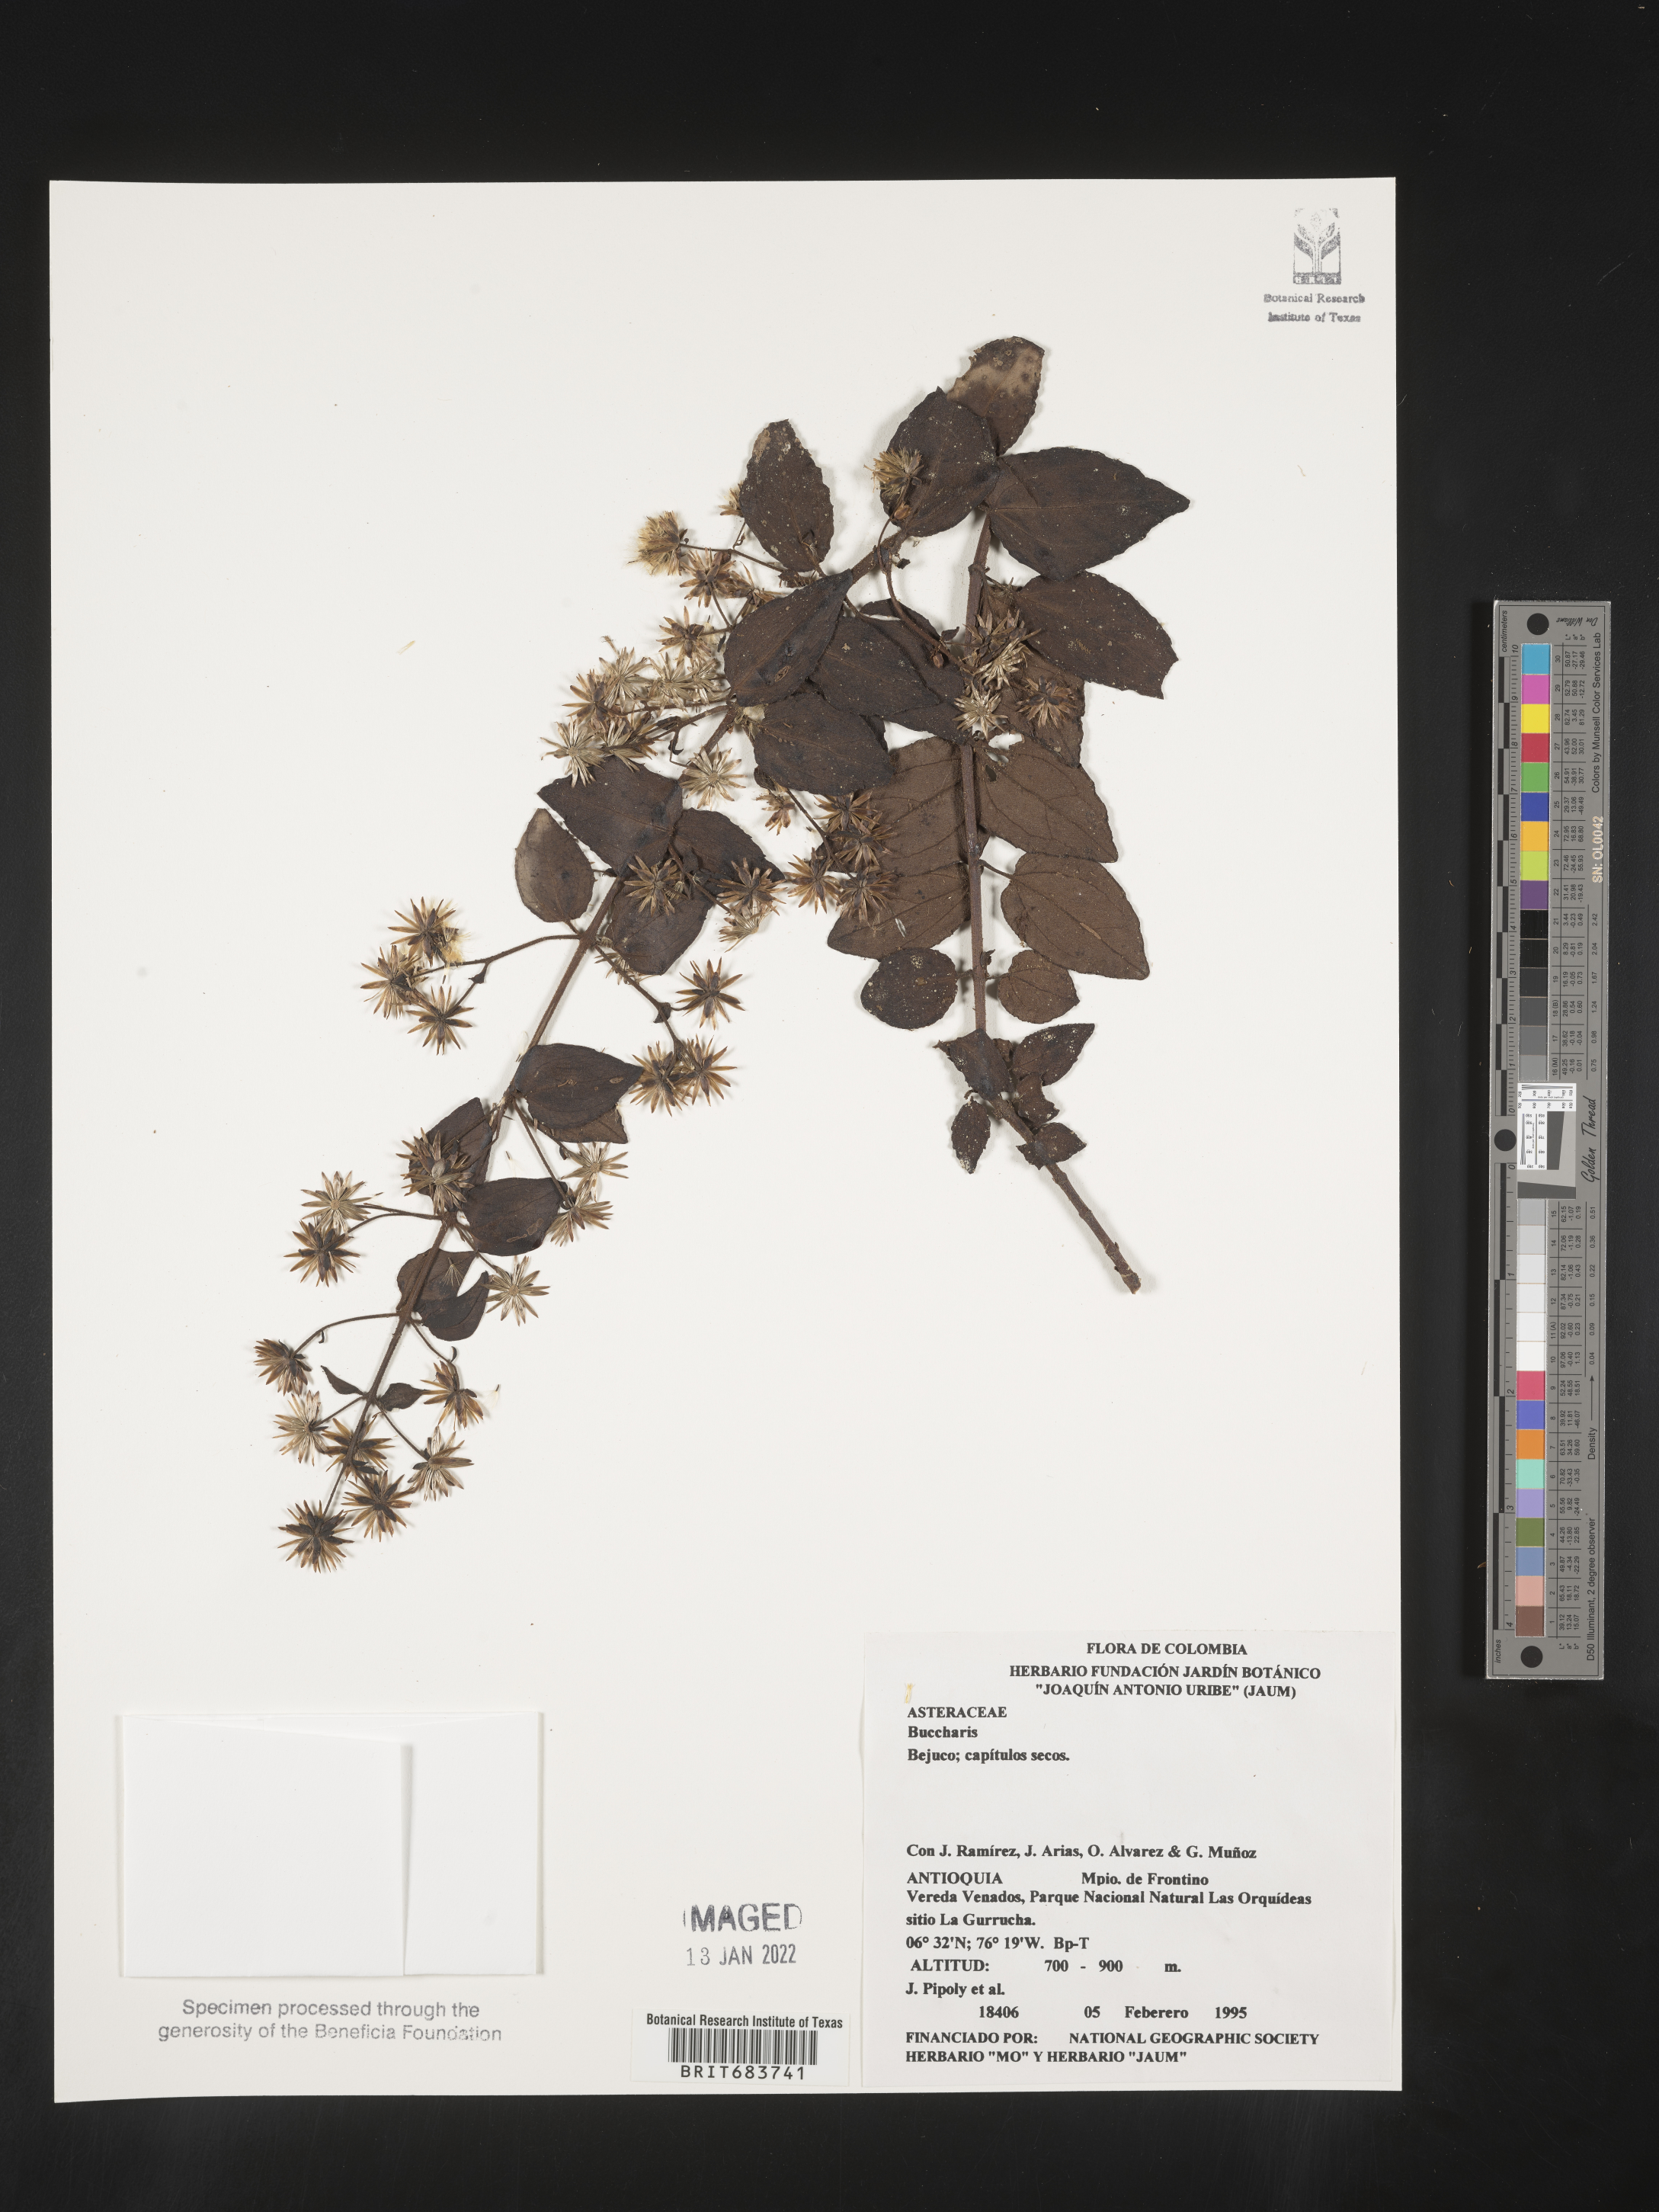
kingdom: Plantae
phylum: Tracheophyta
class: Magnoliopsida
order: Asterales
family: Asteraceae
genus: Baccharis
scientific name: Baccharis
